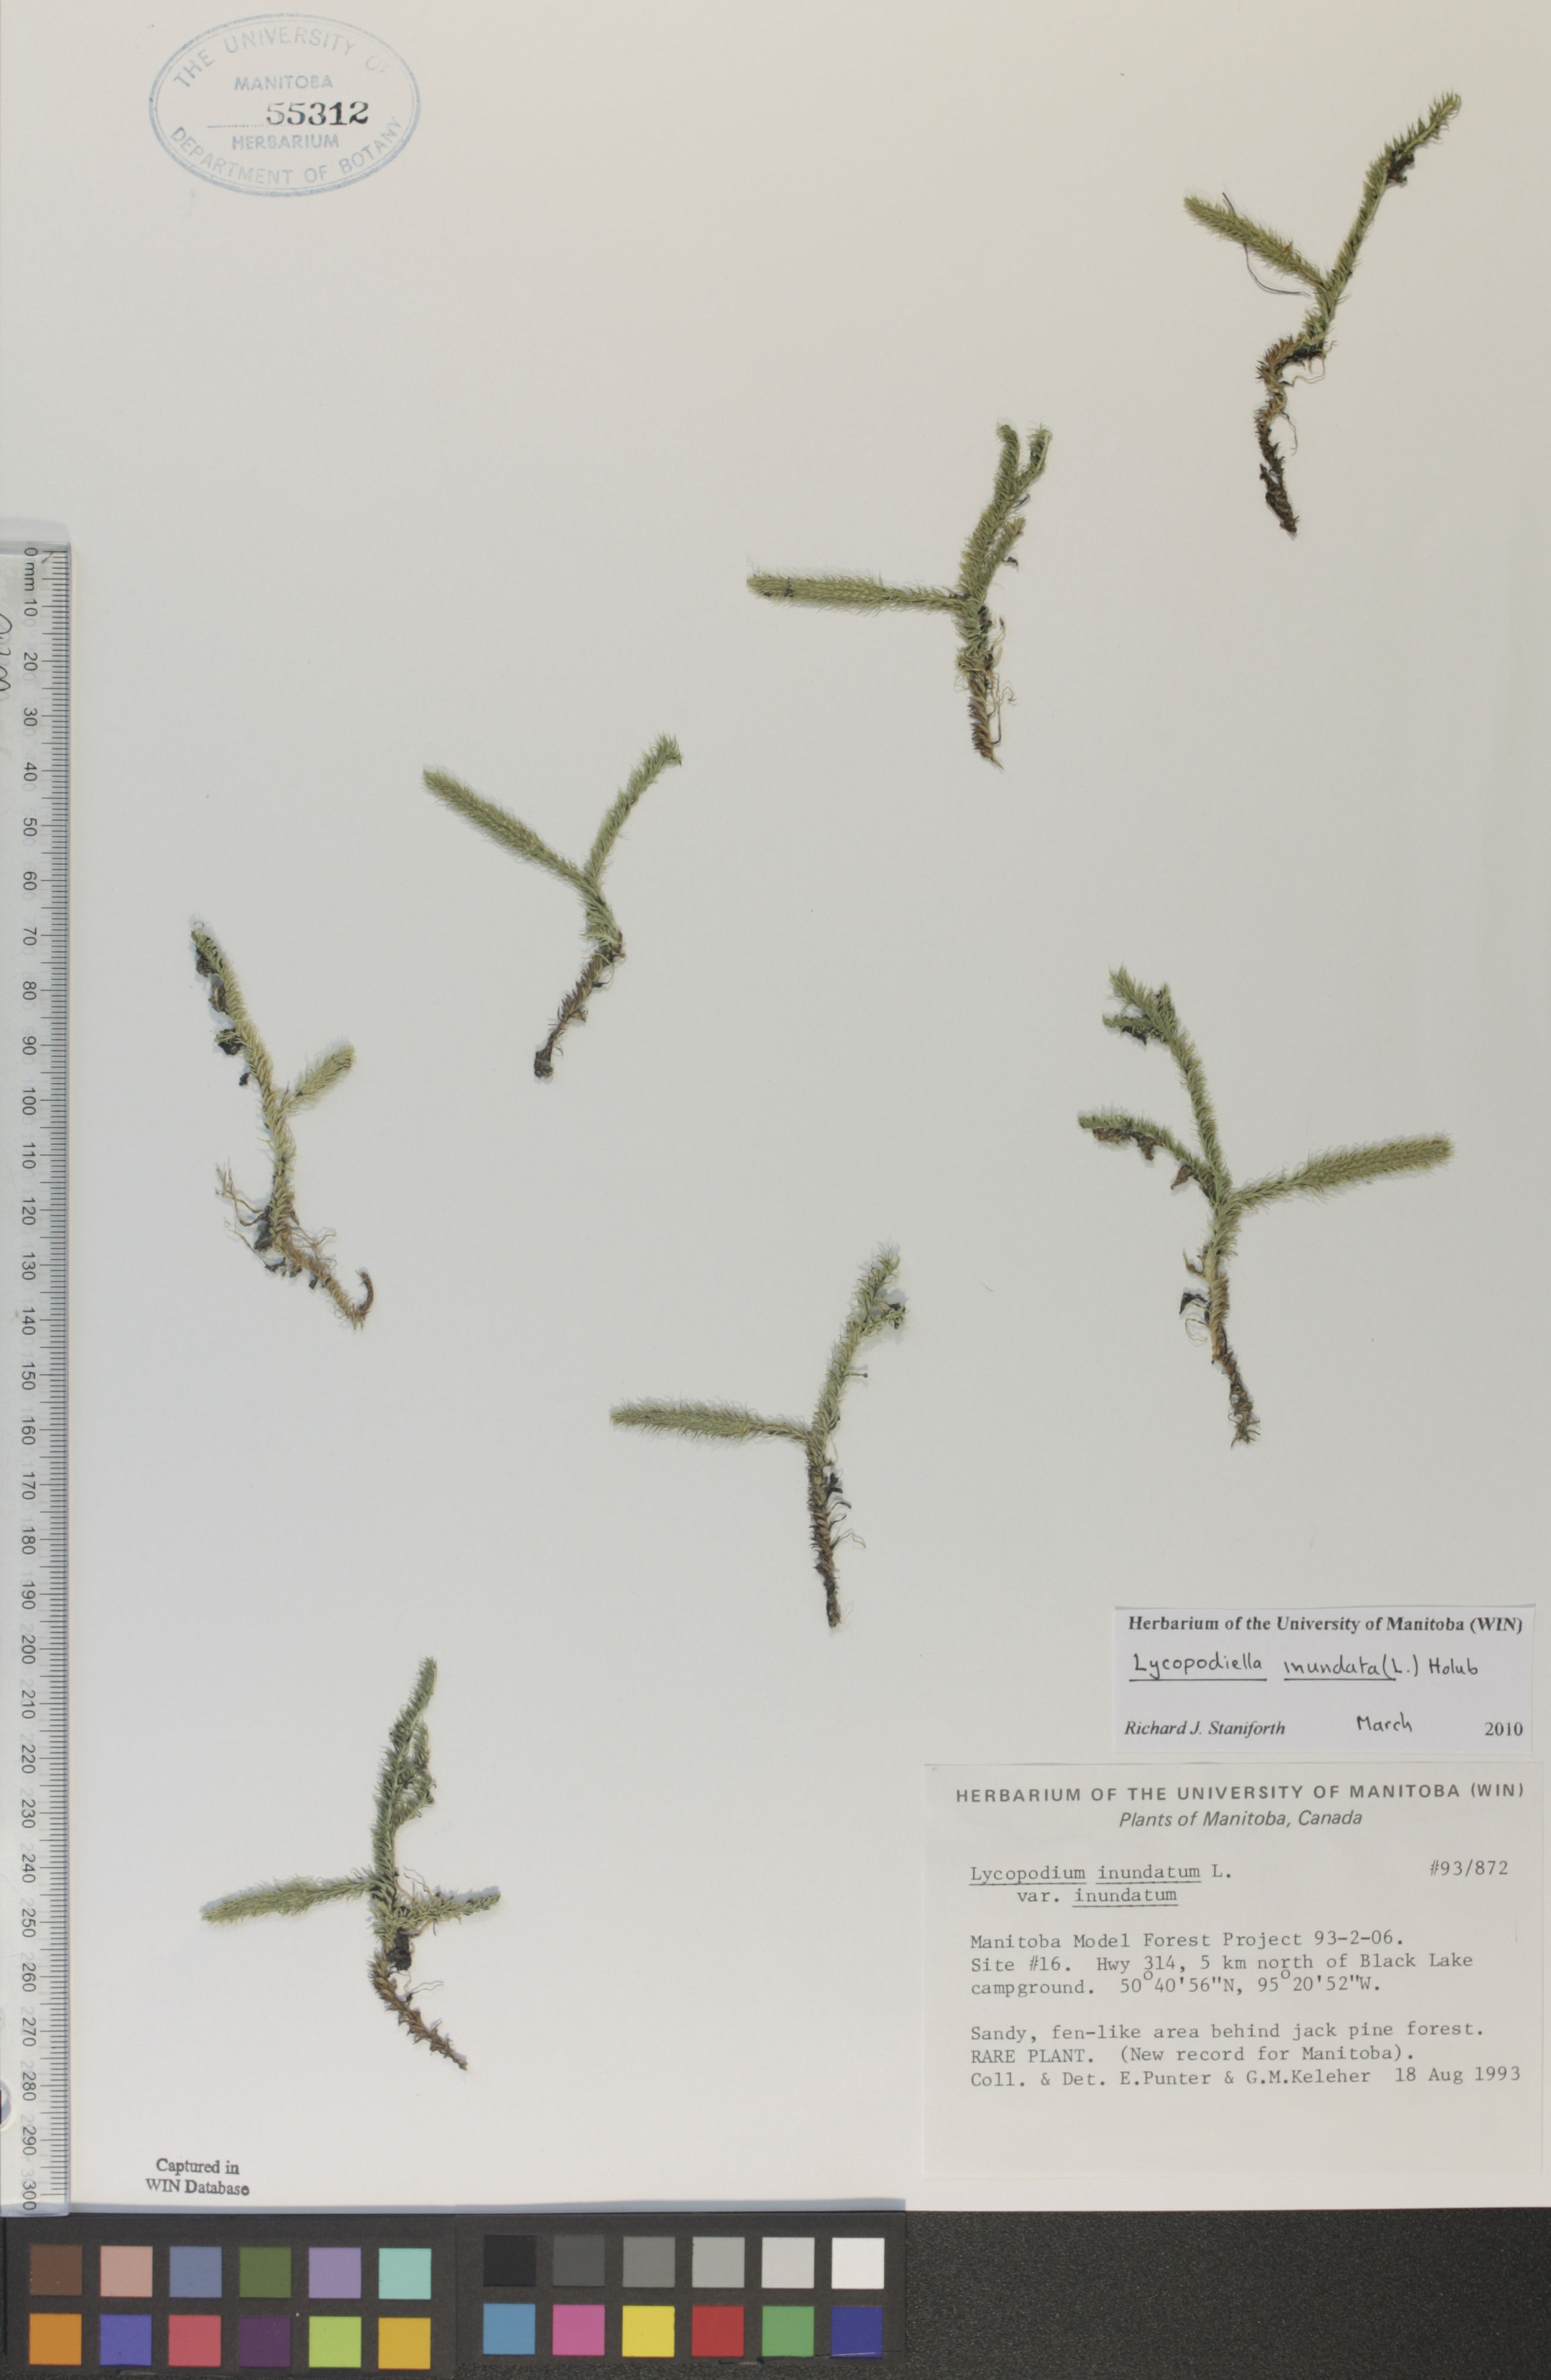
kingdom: Plantae
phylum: Tracheophyta
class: Lycopodiopsida
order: Lycopodiales
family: Lycopodiaceae
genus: Lycopodiella
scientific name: Lycopodiella inundata
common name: Marsh clubmoss
